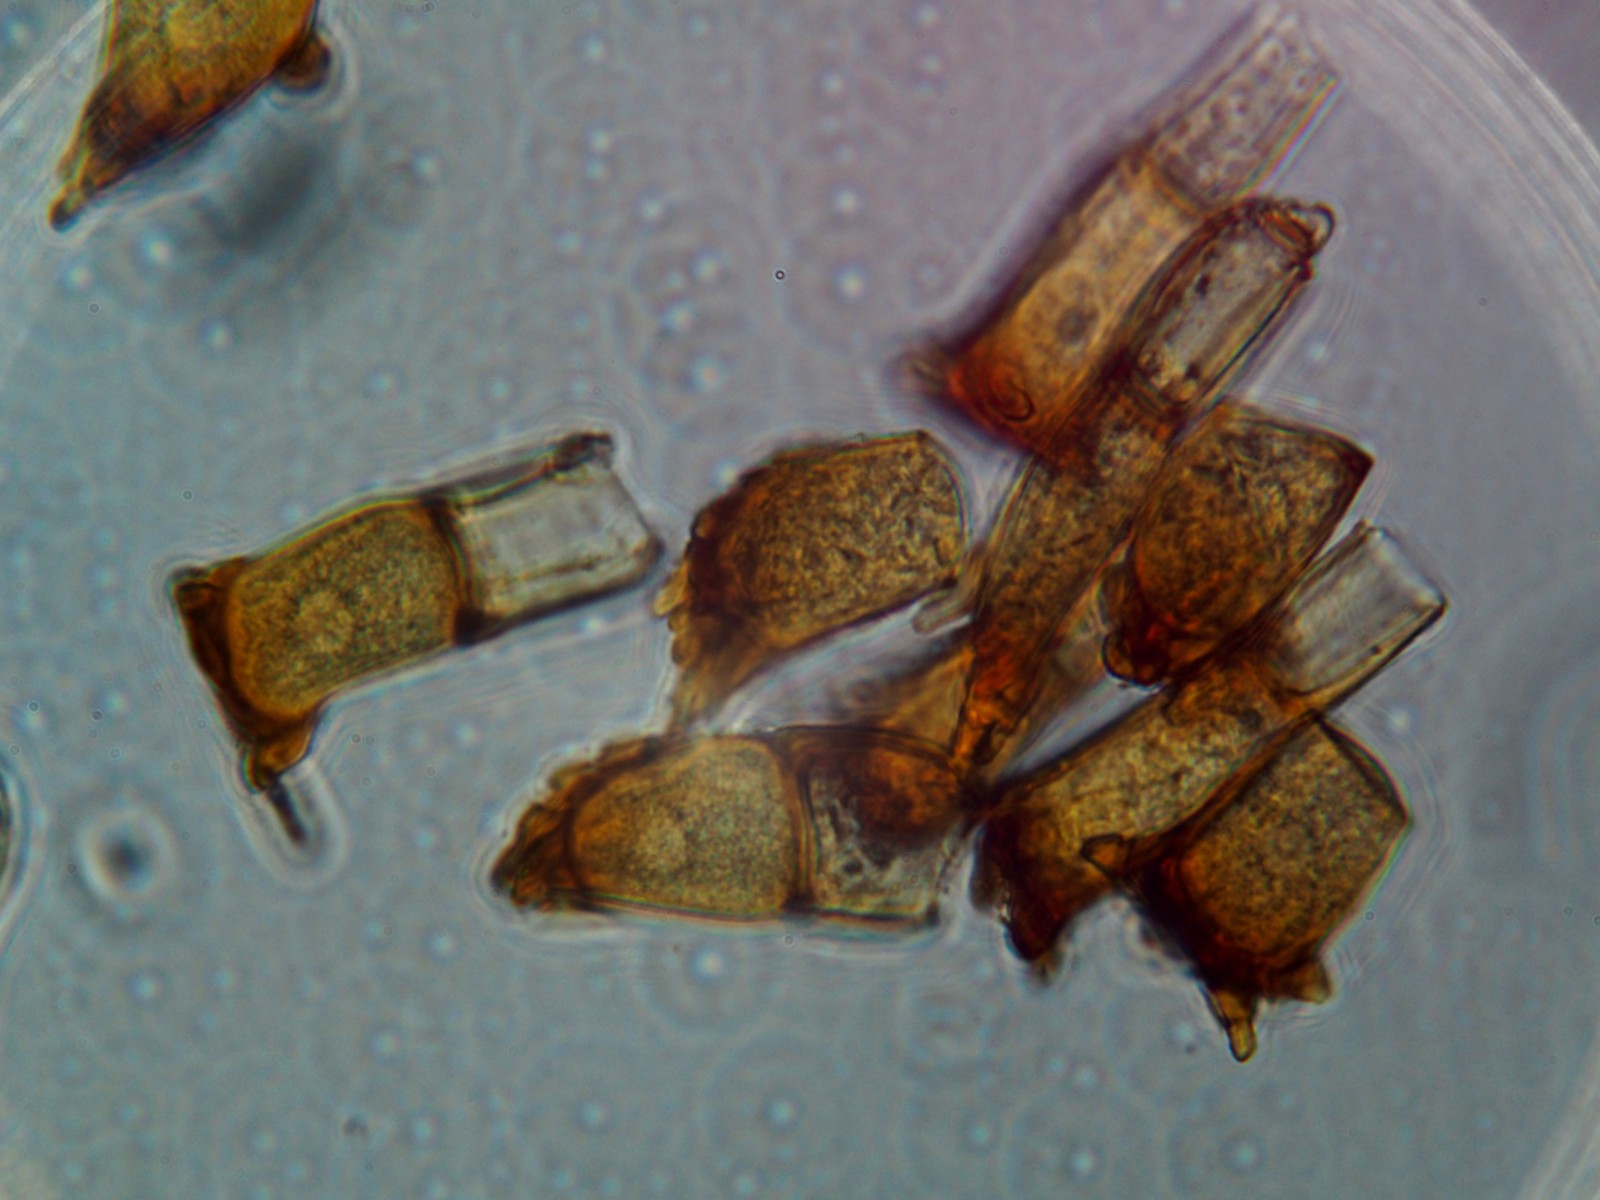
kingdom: Fungi
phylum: Basidiomycota
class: Pucciniomycetes
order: Pucciniales
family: Pucciniaceae
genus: Puccinia
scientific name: Puccinia coronata
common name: Crown rust
